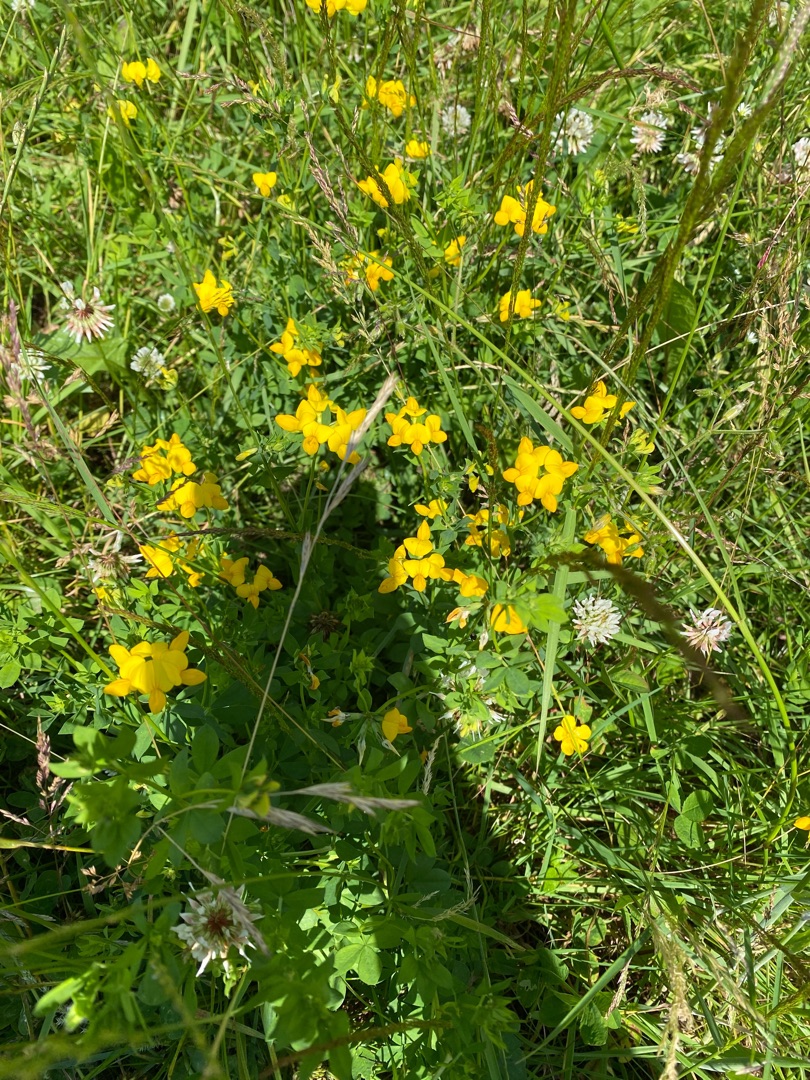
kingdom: Plantae
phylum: Tracheophyta
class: Magnoliopsida
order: Fabales
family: Fabaceae
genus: Lotus
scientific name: Lotus corniculatus
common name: Almindelig kællingetand
